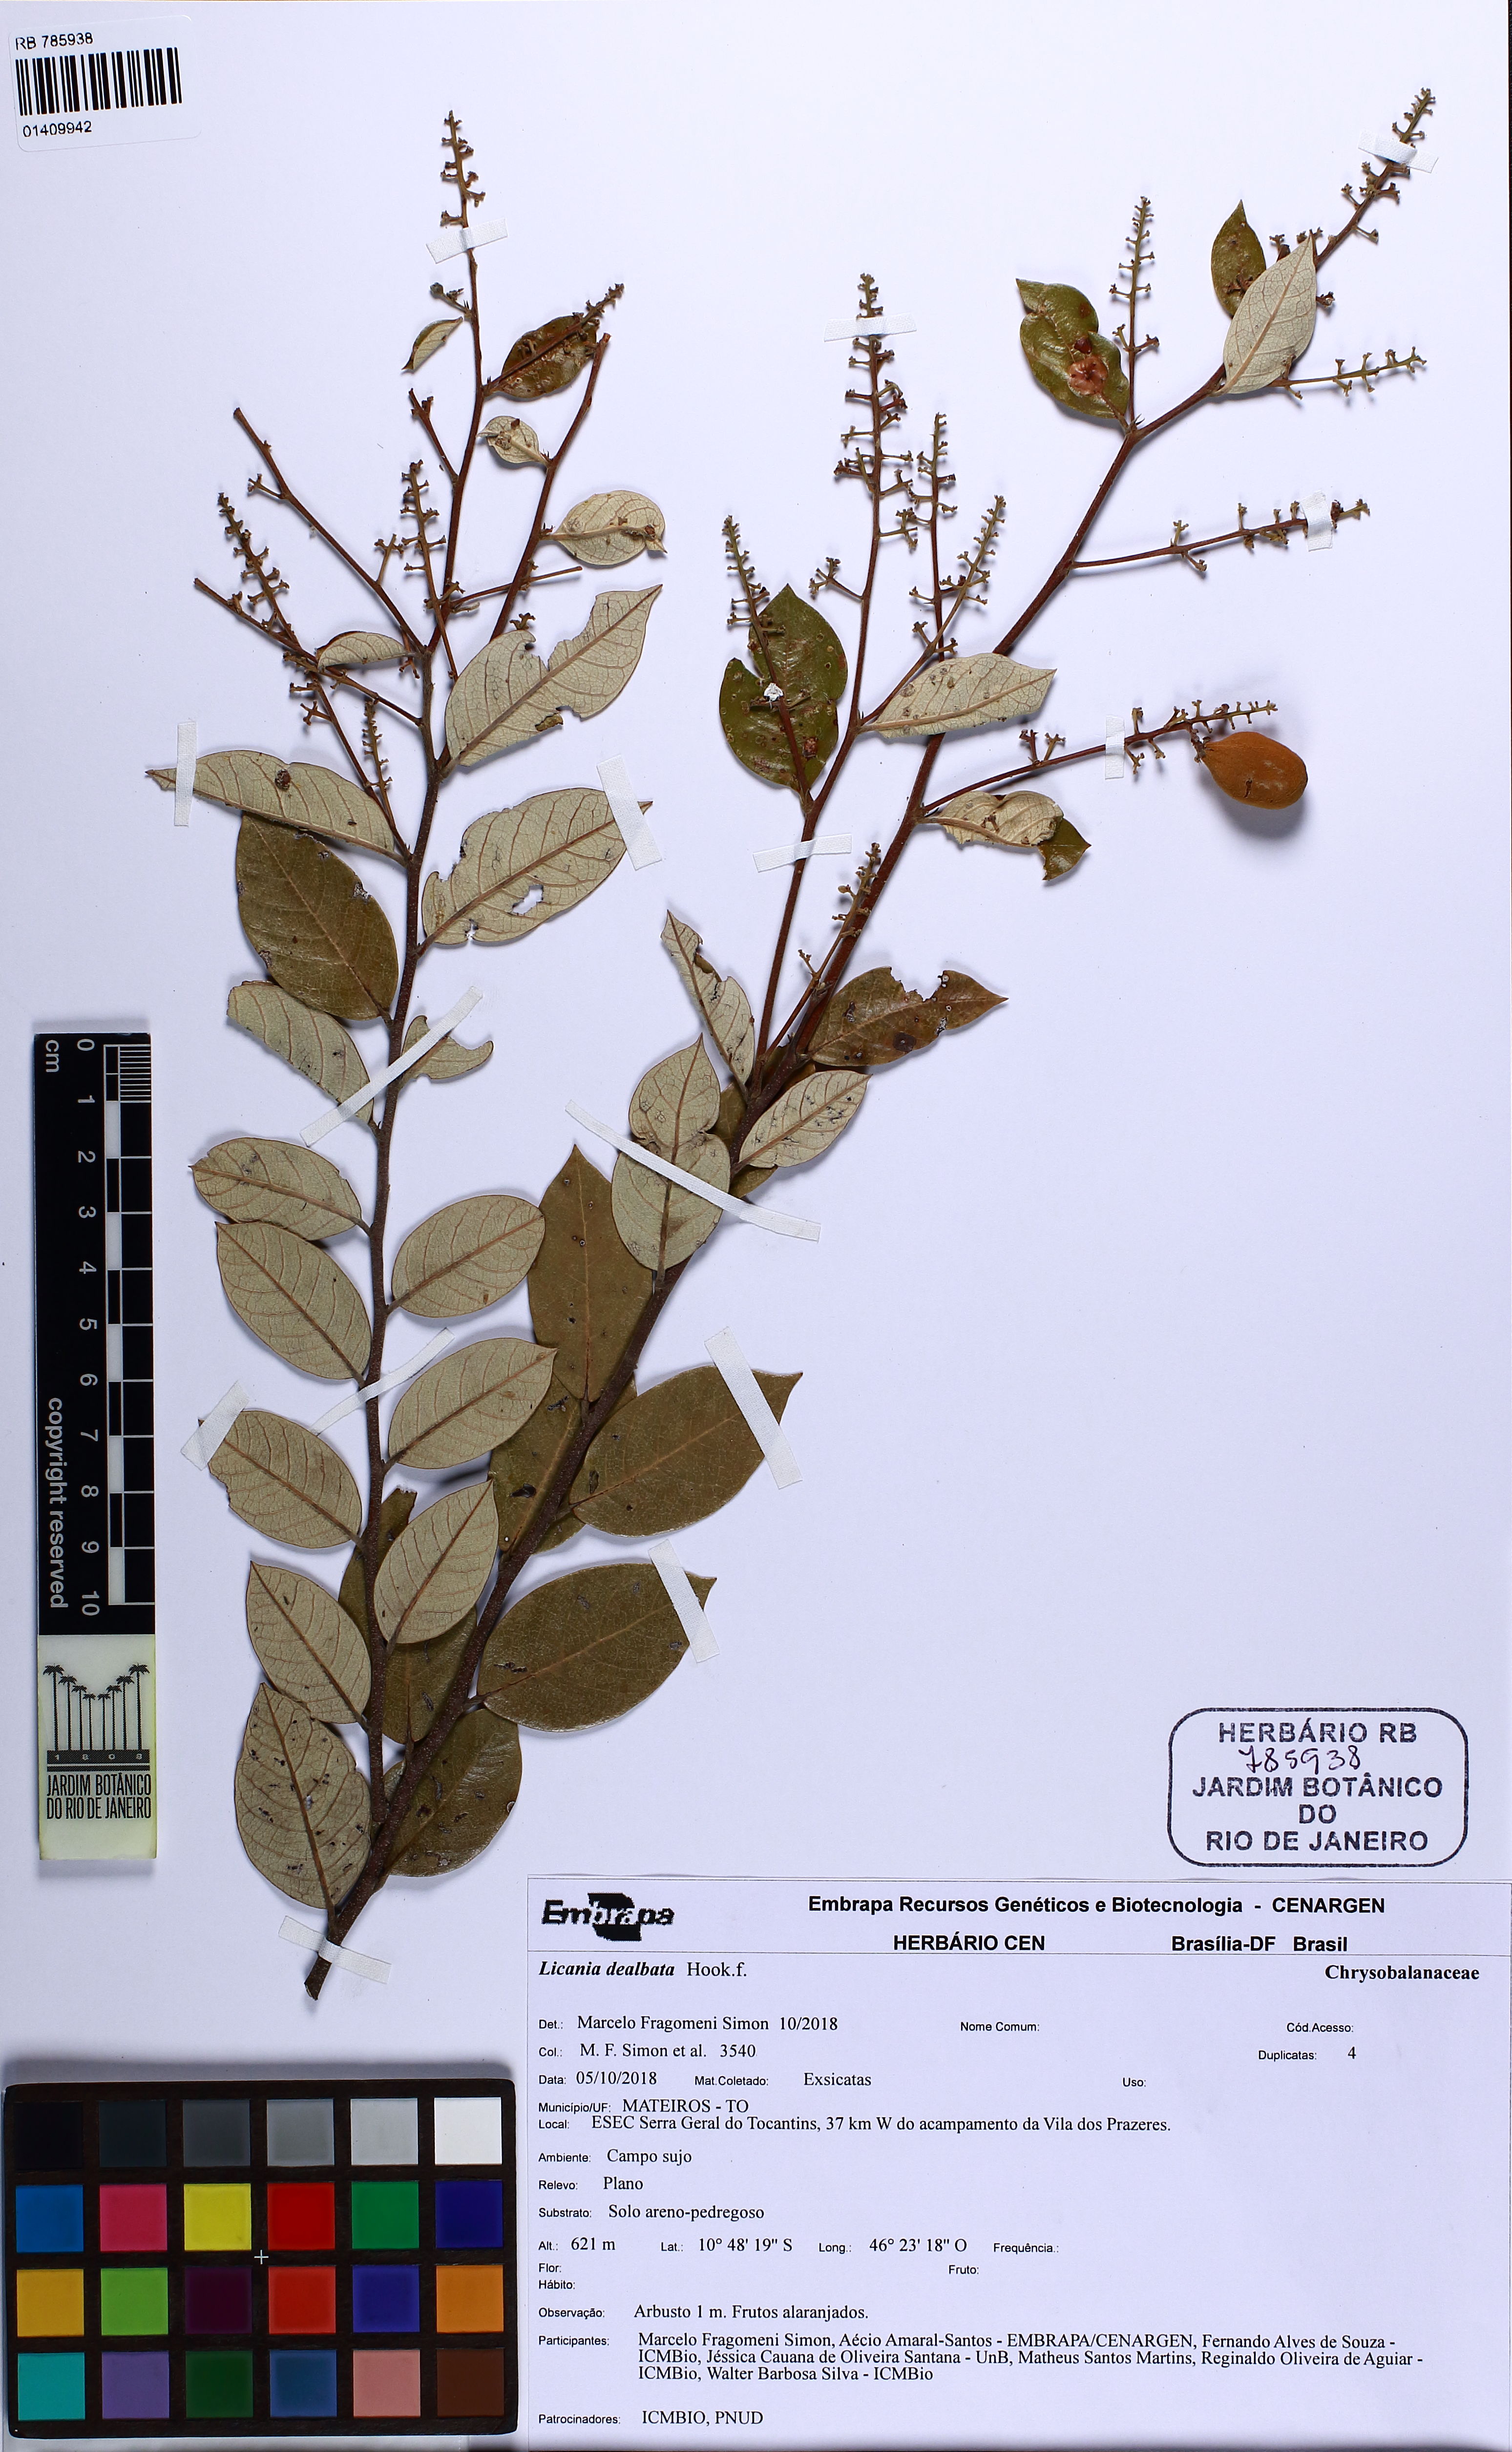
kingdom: Plantae
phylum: Tracheophyta
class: Magnoliopsida
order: Malpighiales
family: Chrysobalanaceae
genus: Licania
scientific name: Licania dealbata
